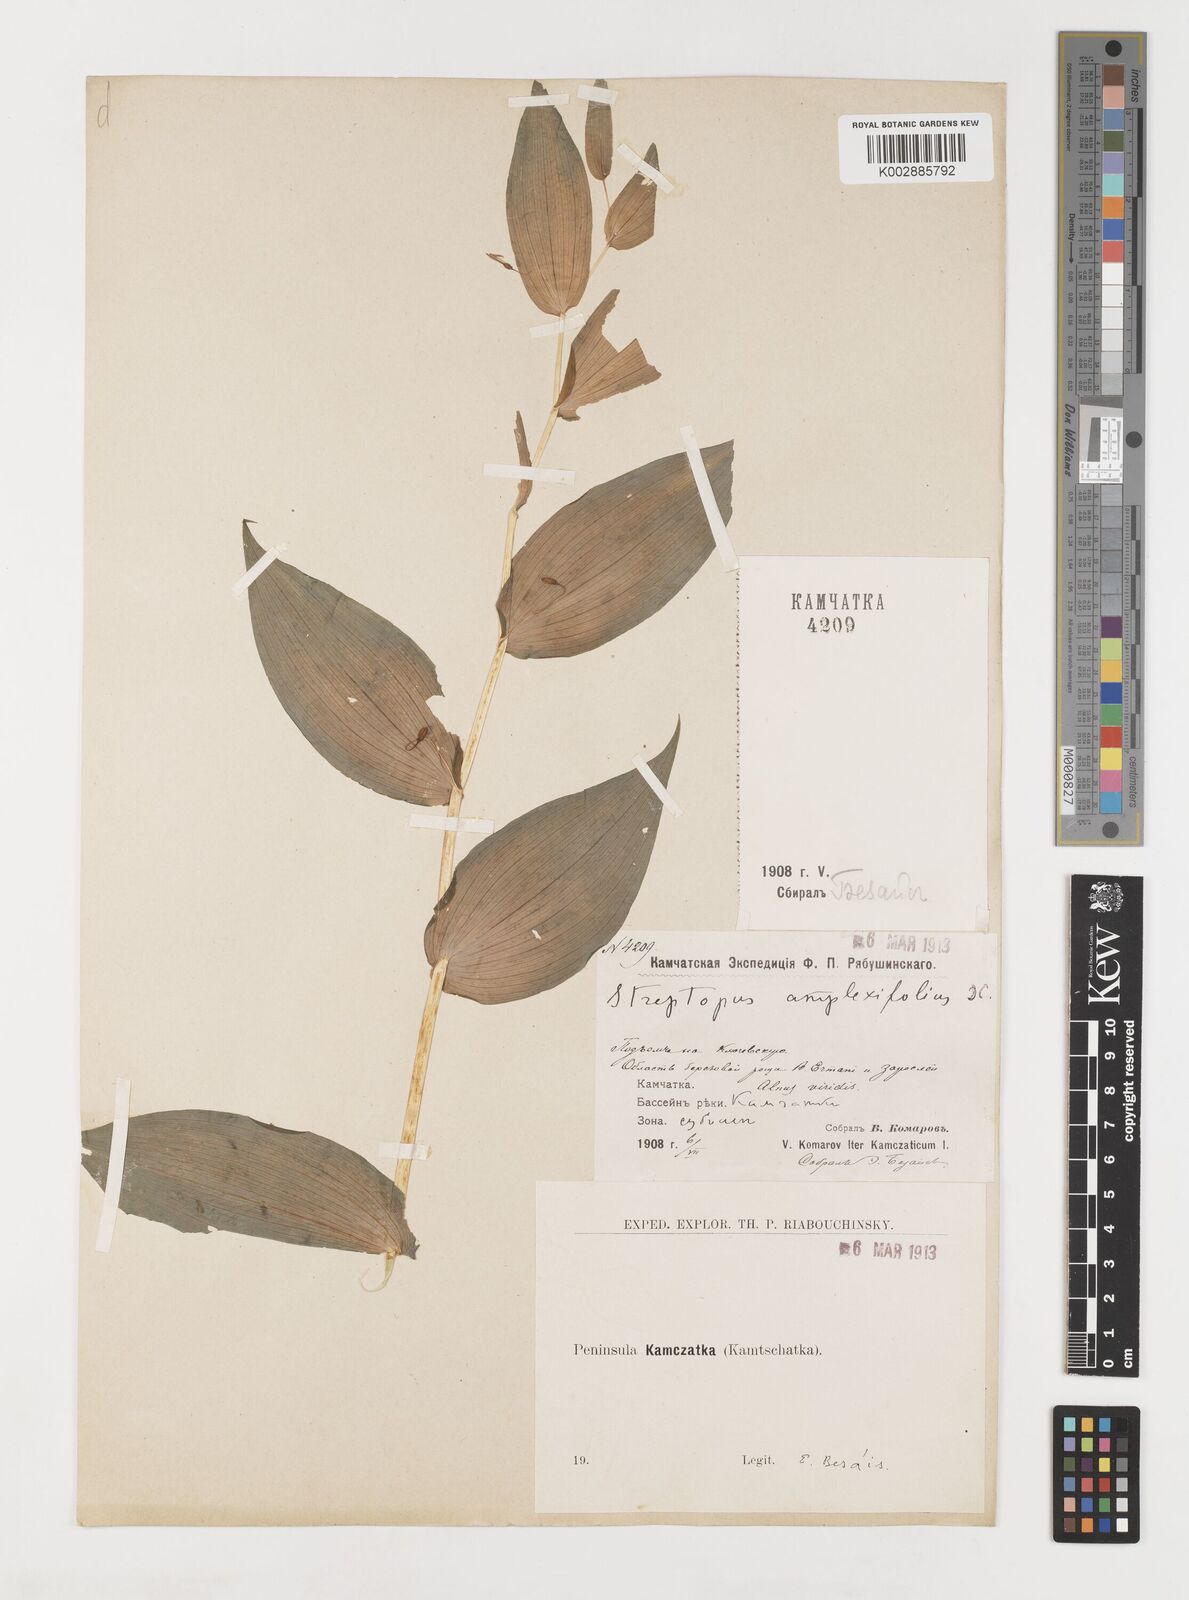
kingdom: Plantae
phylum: Tracheophyta
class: Liliopsida
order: Liliales
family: Liliaceae
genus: Streptopus
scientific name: Streptopus amplexifolius
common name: Clasp twisted stalk
